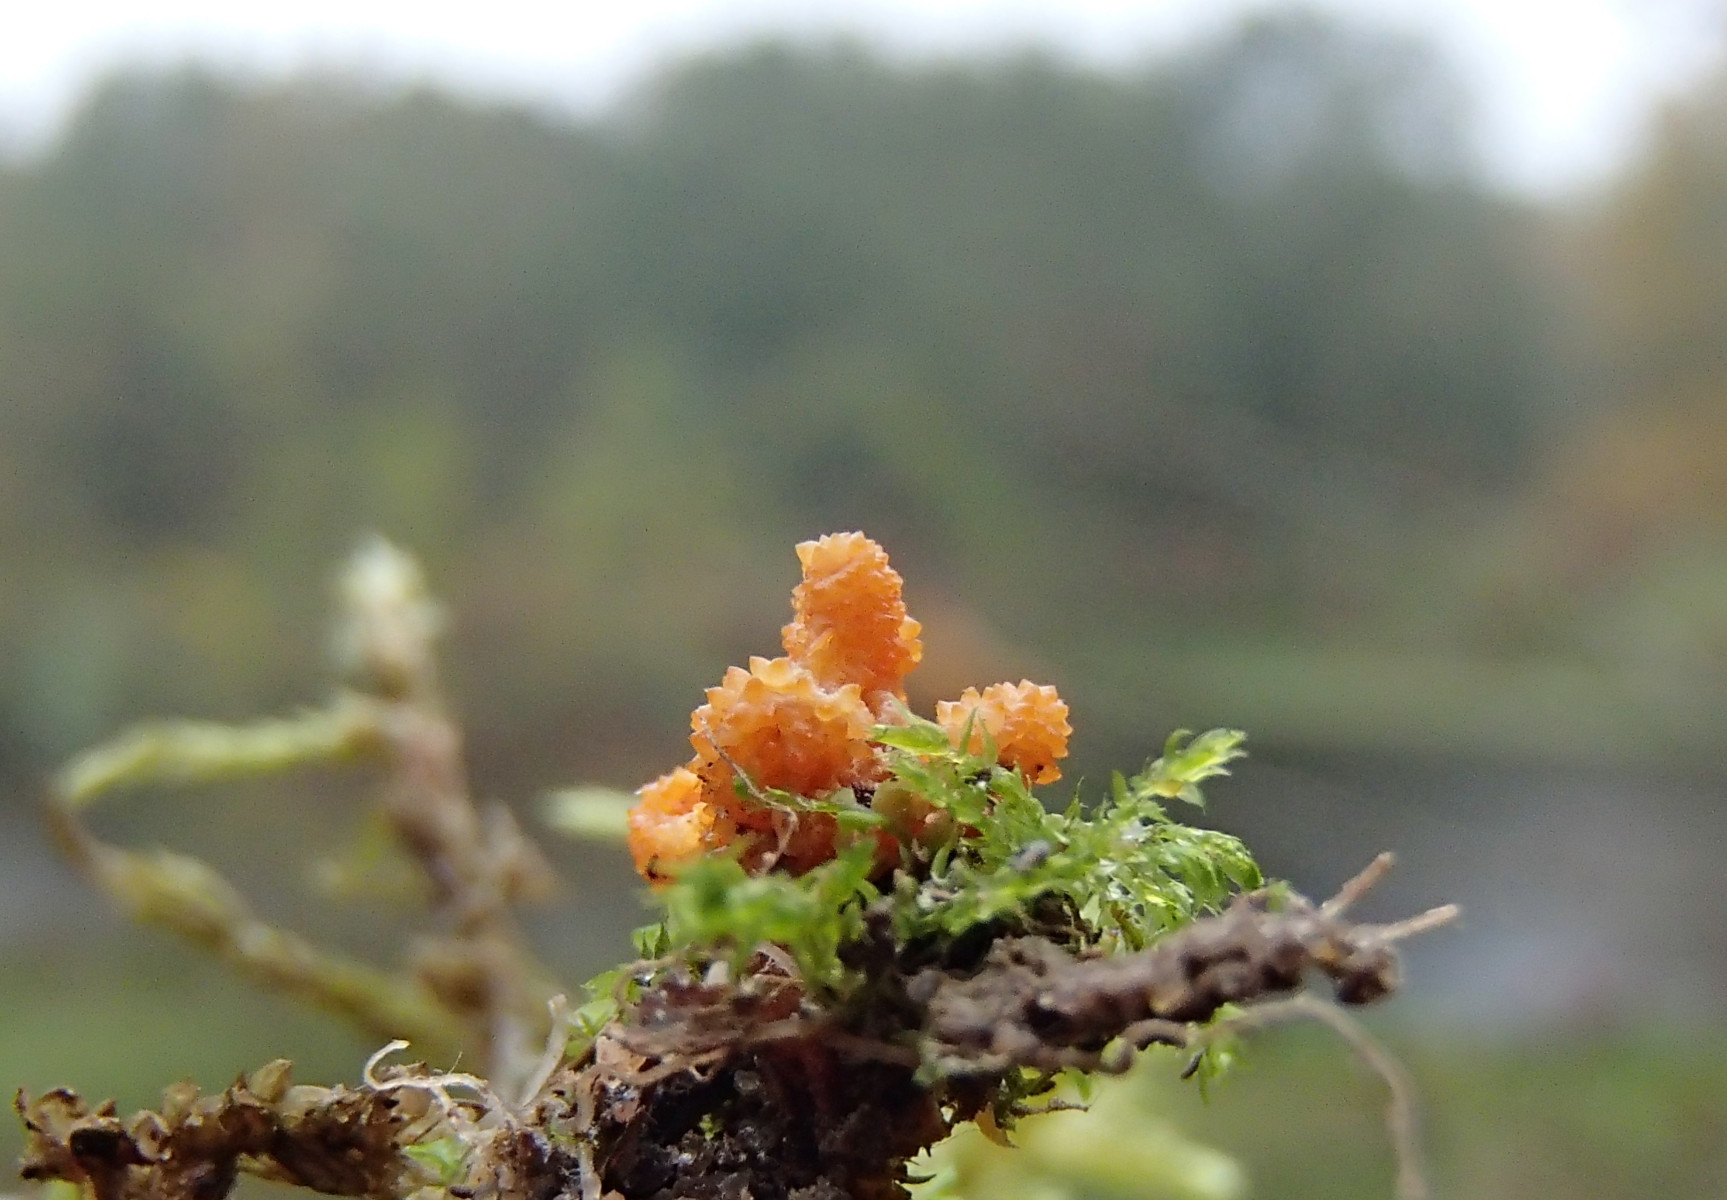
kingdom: Fungi
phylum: Ascomycota
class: Sordariomycetes
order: Hypocreales
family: Cordycipitaceae
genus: Cordyceps
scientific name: Cordyceps militaris
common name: puppe-snyltekølle
